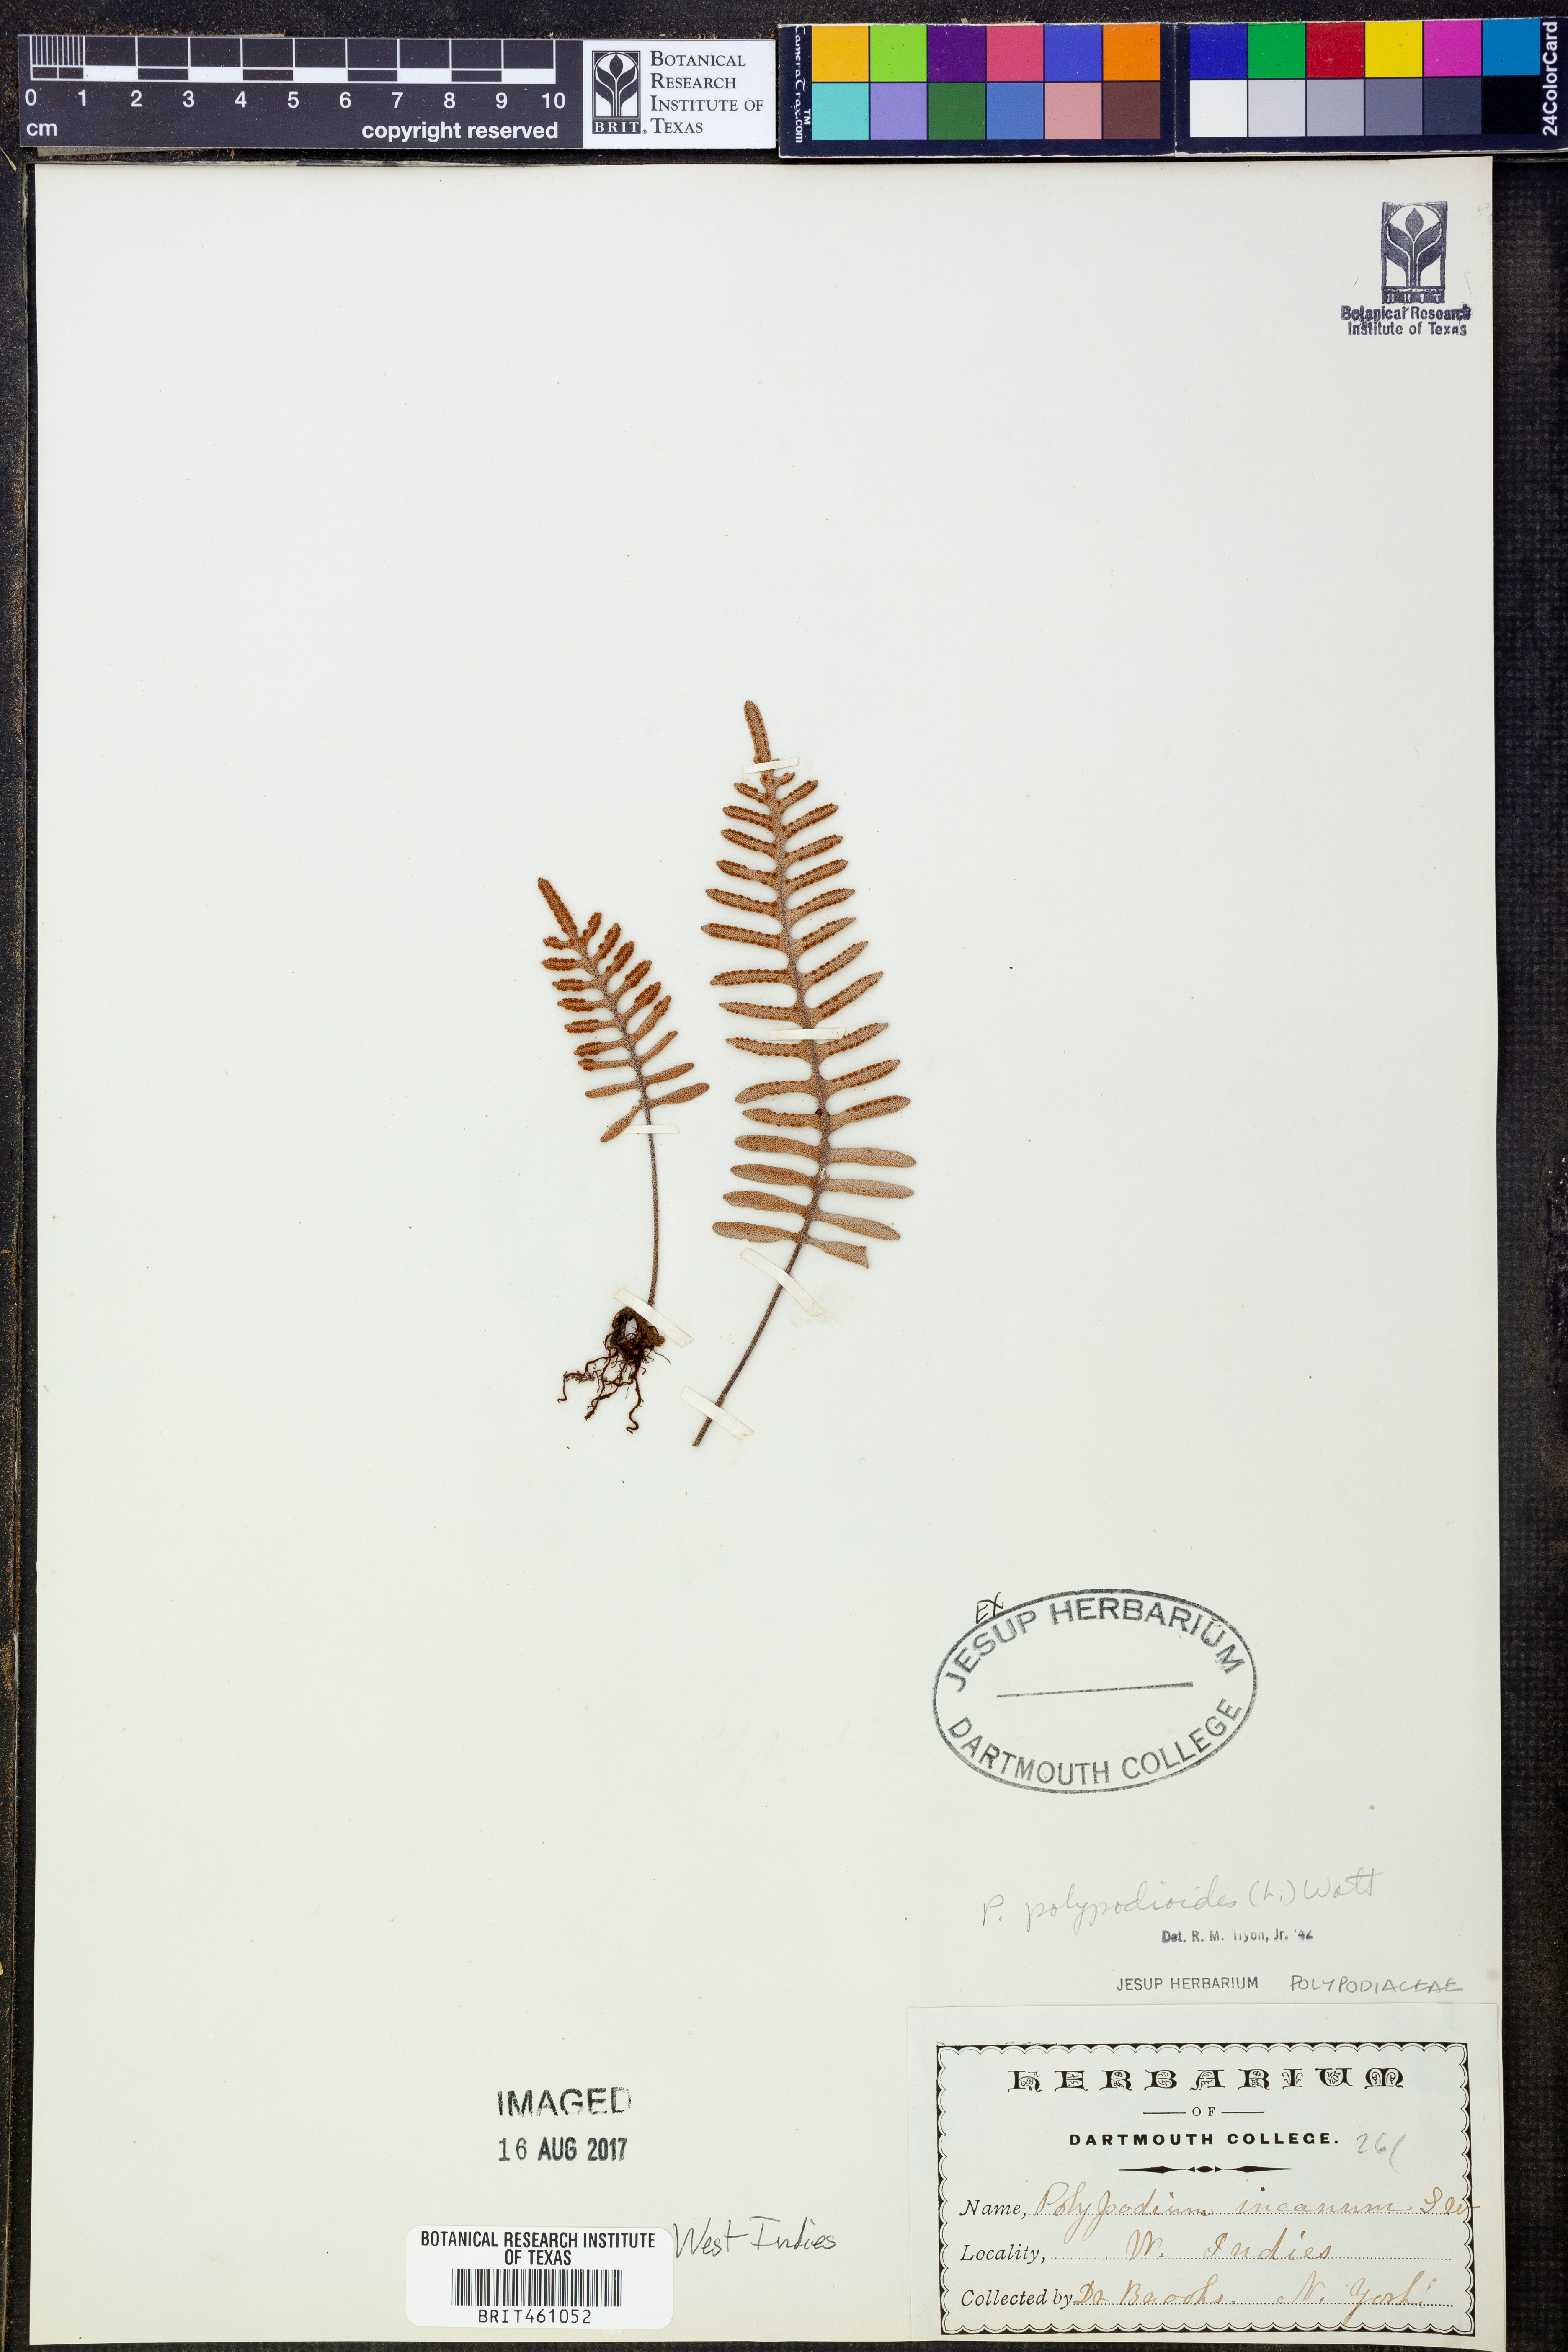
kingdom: Plantae
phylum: Tracheophyta
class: Polypodiopsida
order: Polypodiales
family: Polypodiaceae
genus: Pleopeltis
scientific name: Pleopeltis polypodioides
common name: Resurrection fern
